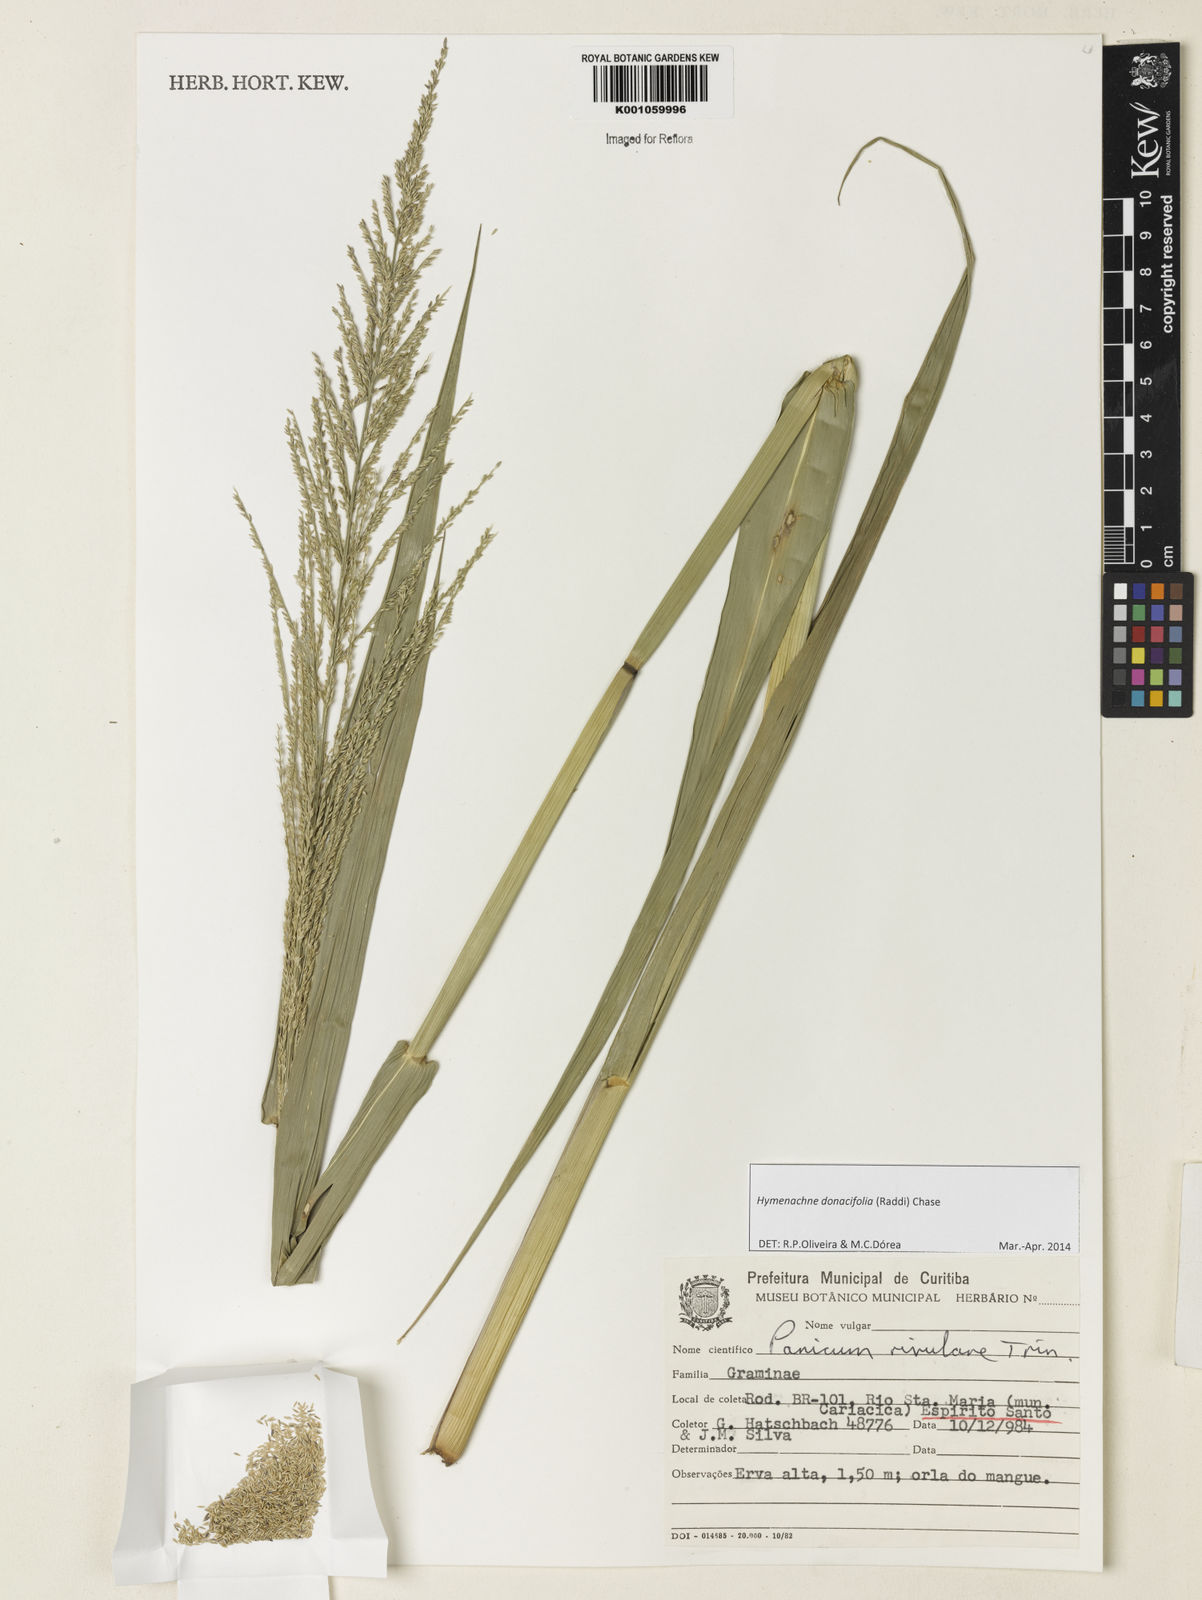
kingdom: Plantae
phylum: Tracheophyta
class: Liliopsida
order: Poales
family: Poaceae
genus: Hymenachne
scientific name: Hymenachne donacifolia
